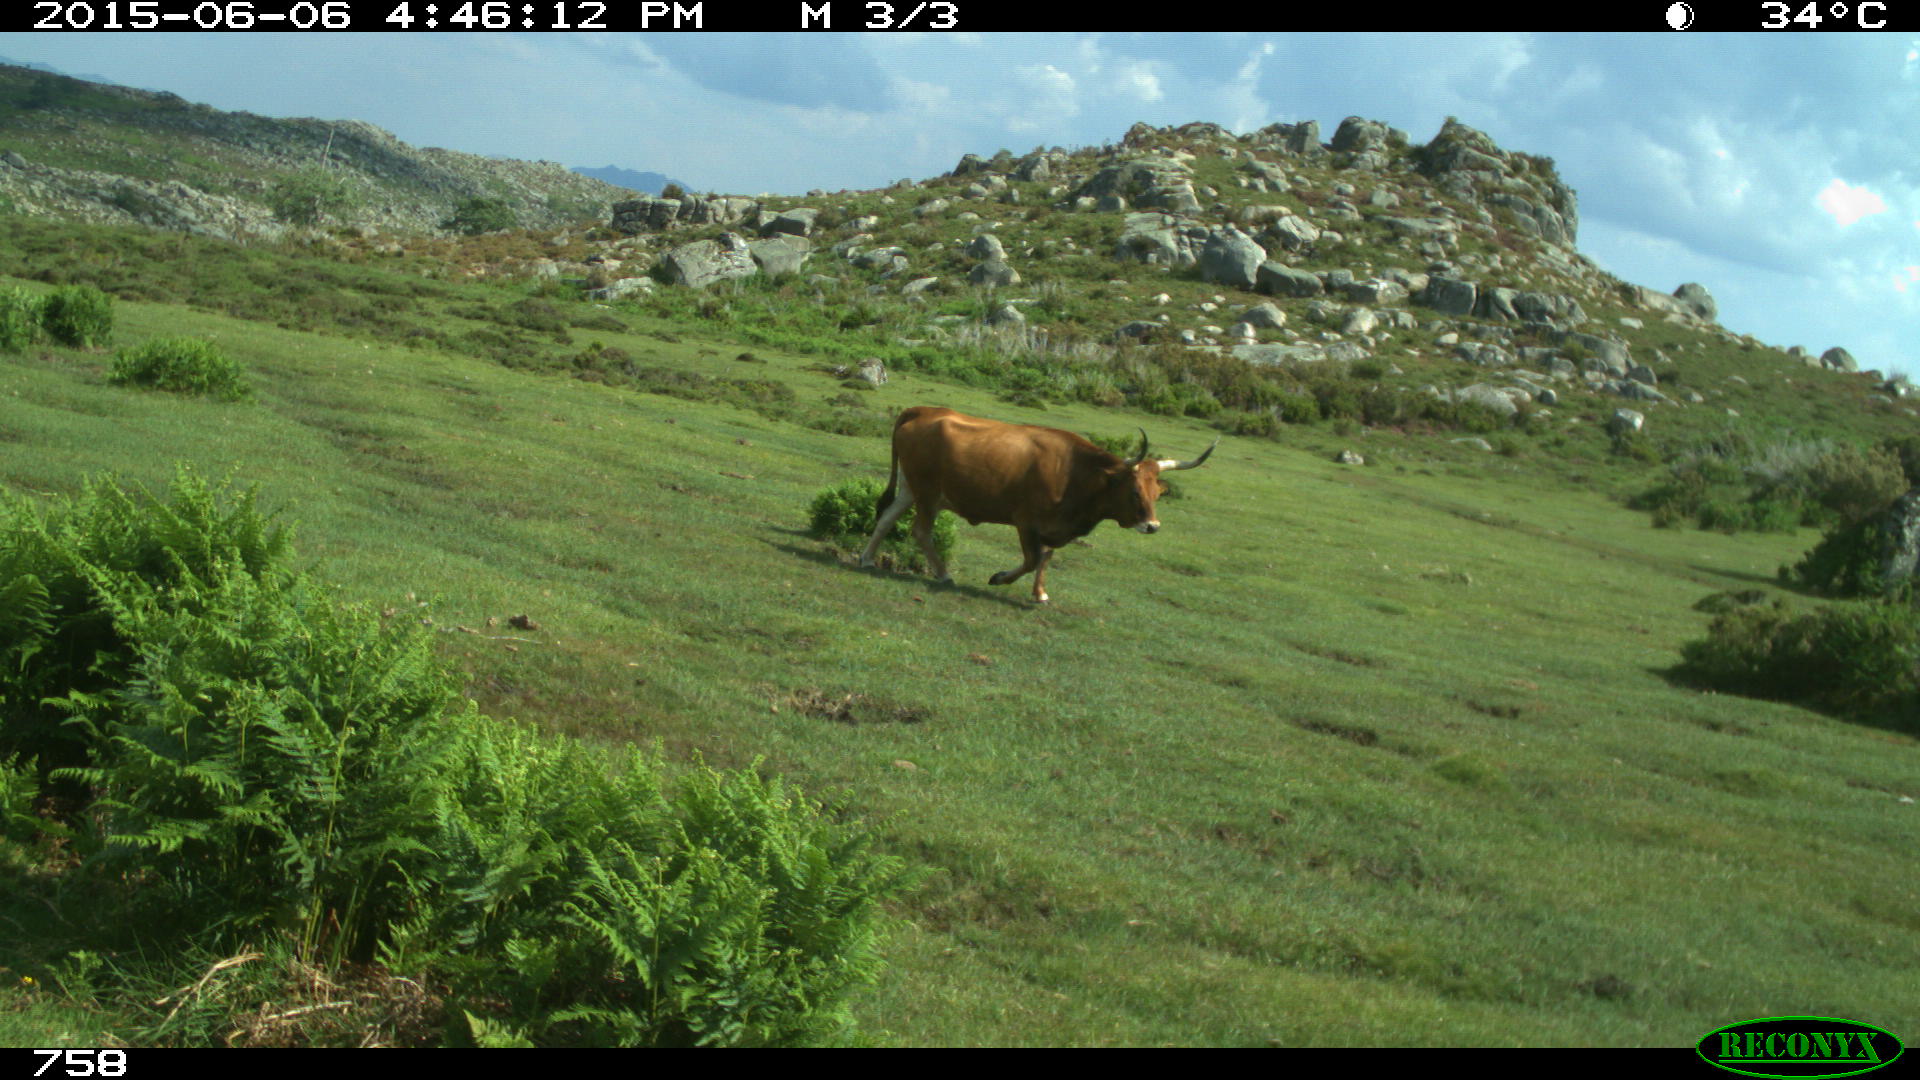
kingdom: Animalia
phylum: Chordata
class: Mammalia
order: Artiodactyla
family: Bovidae
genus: Bos
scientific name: Bos taurus
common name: Domesticated cattle
